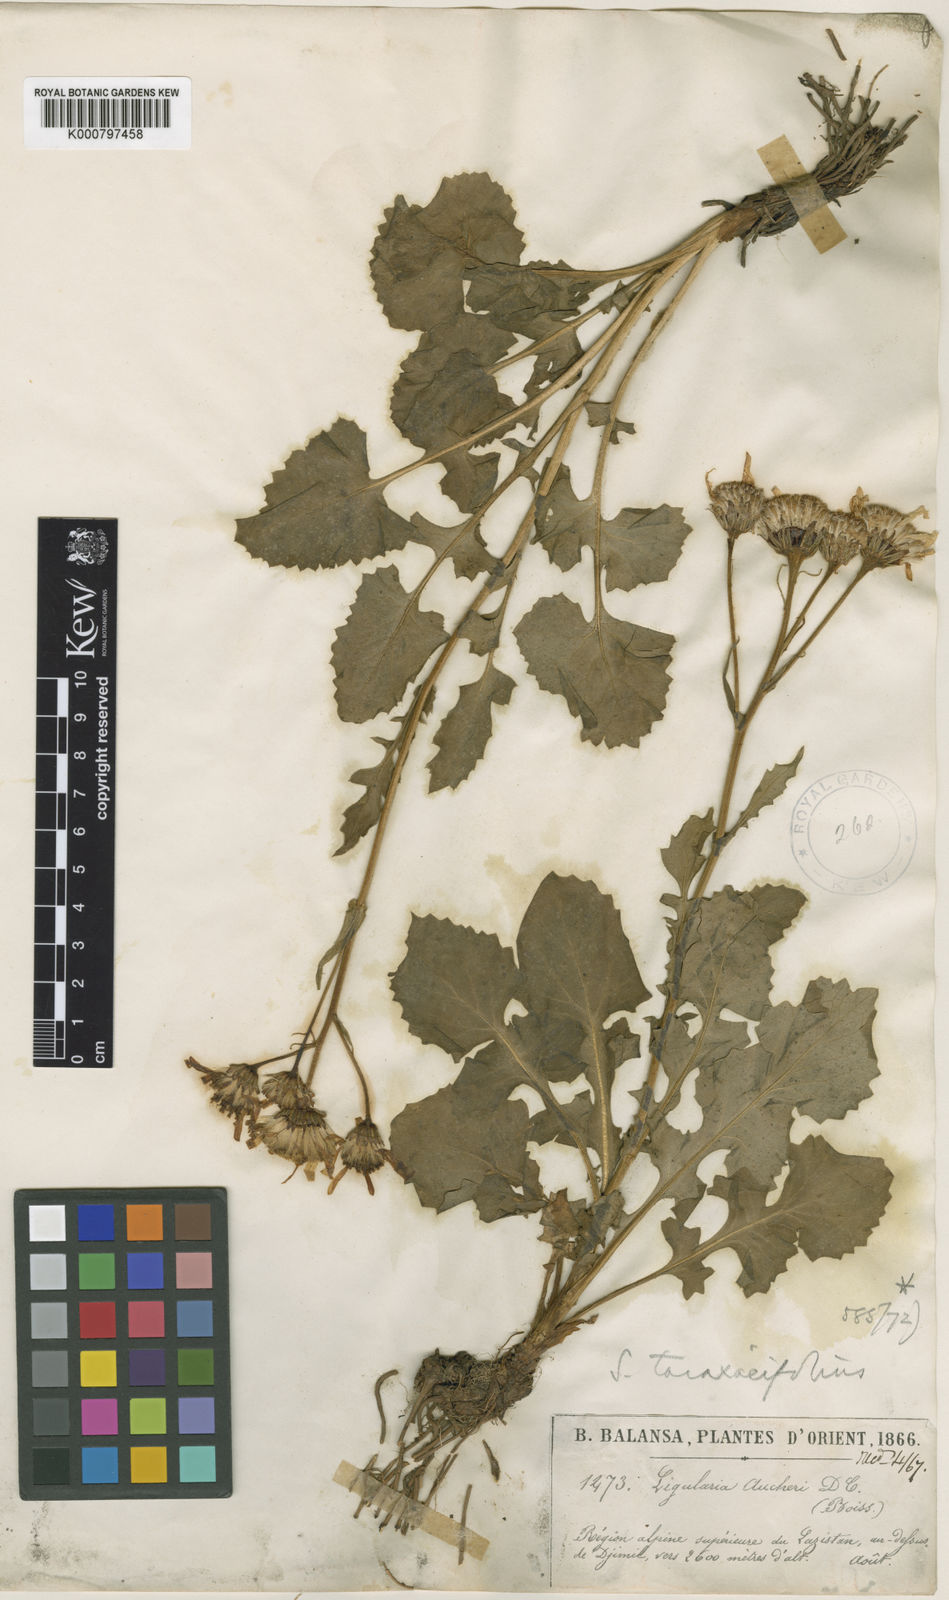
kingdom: Plantae
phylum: Tracheophyta
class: Magnoliopsida
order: Asterales
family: Asteraceae
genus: Turanecio
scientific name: Turanecio taraxacifolius
